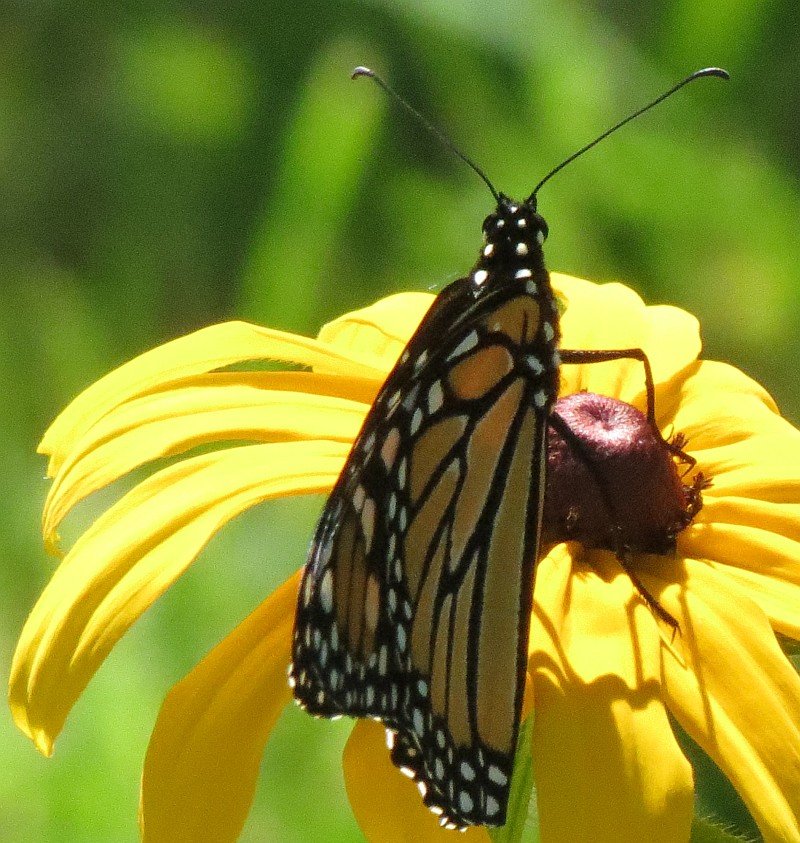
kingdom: Animalia
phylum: Arthropoda
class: Insecta
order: Lepidoptera
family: Nymphalidae
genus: Danaus
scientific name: Danaus plexippus
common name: Monarch
